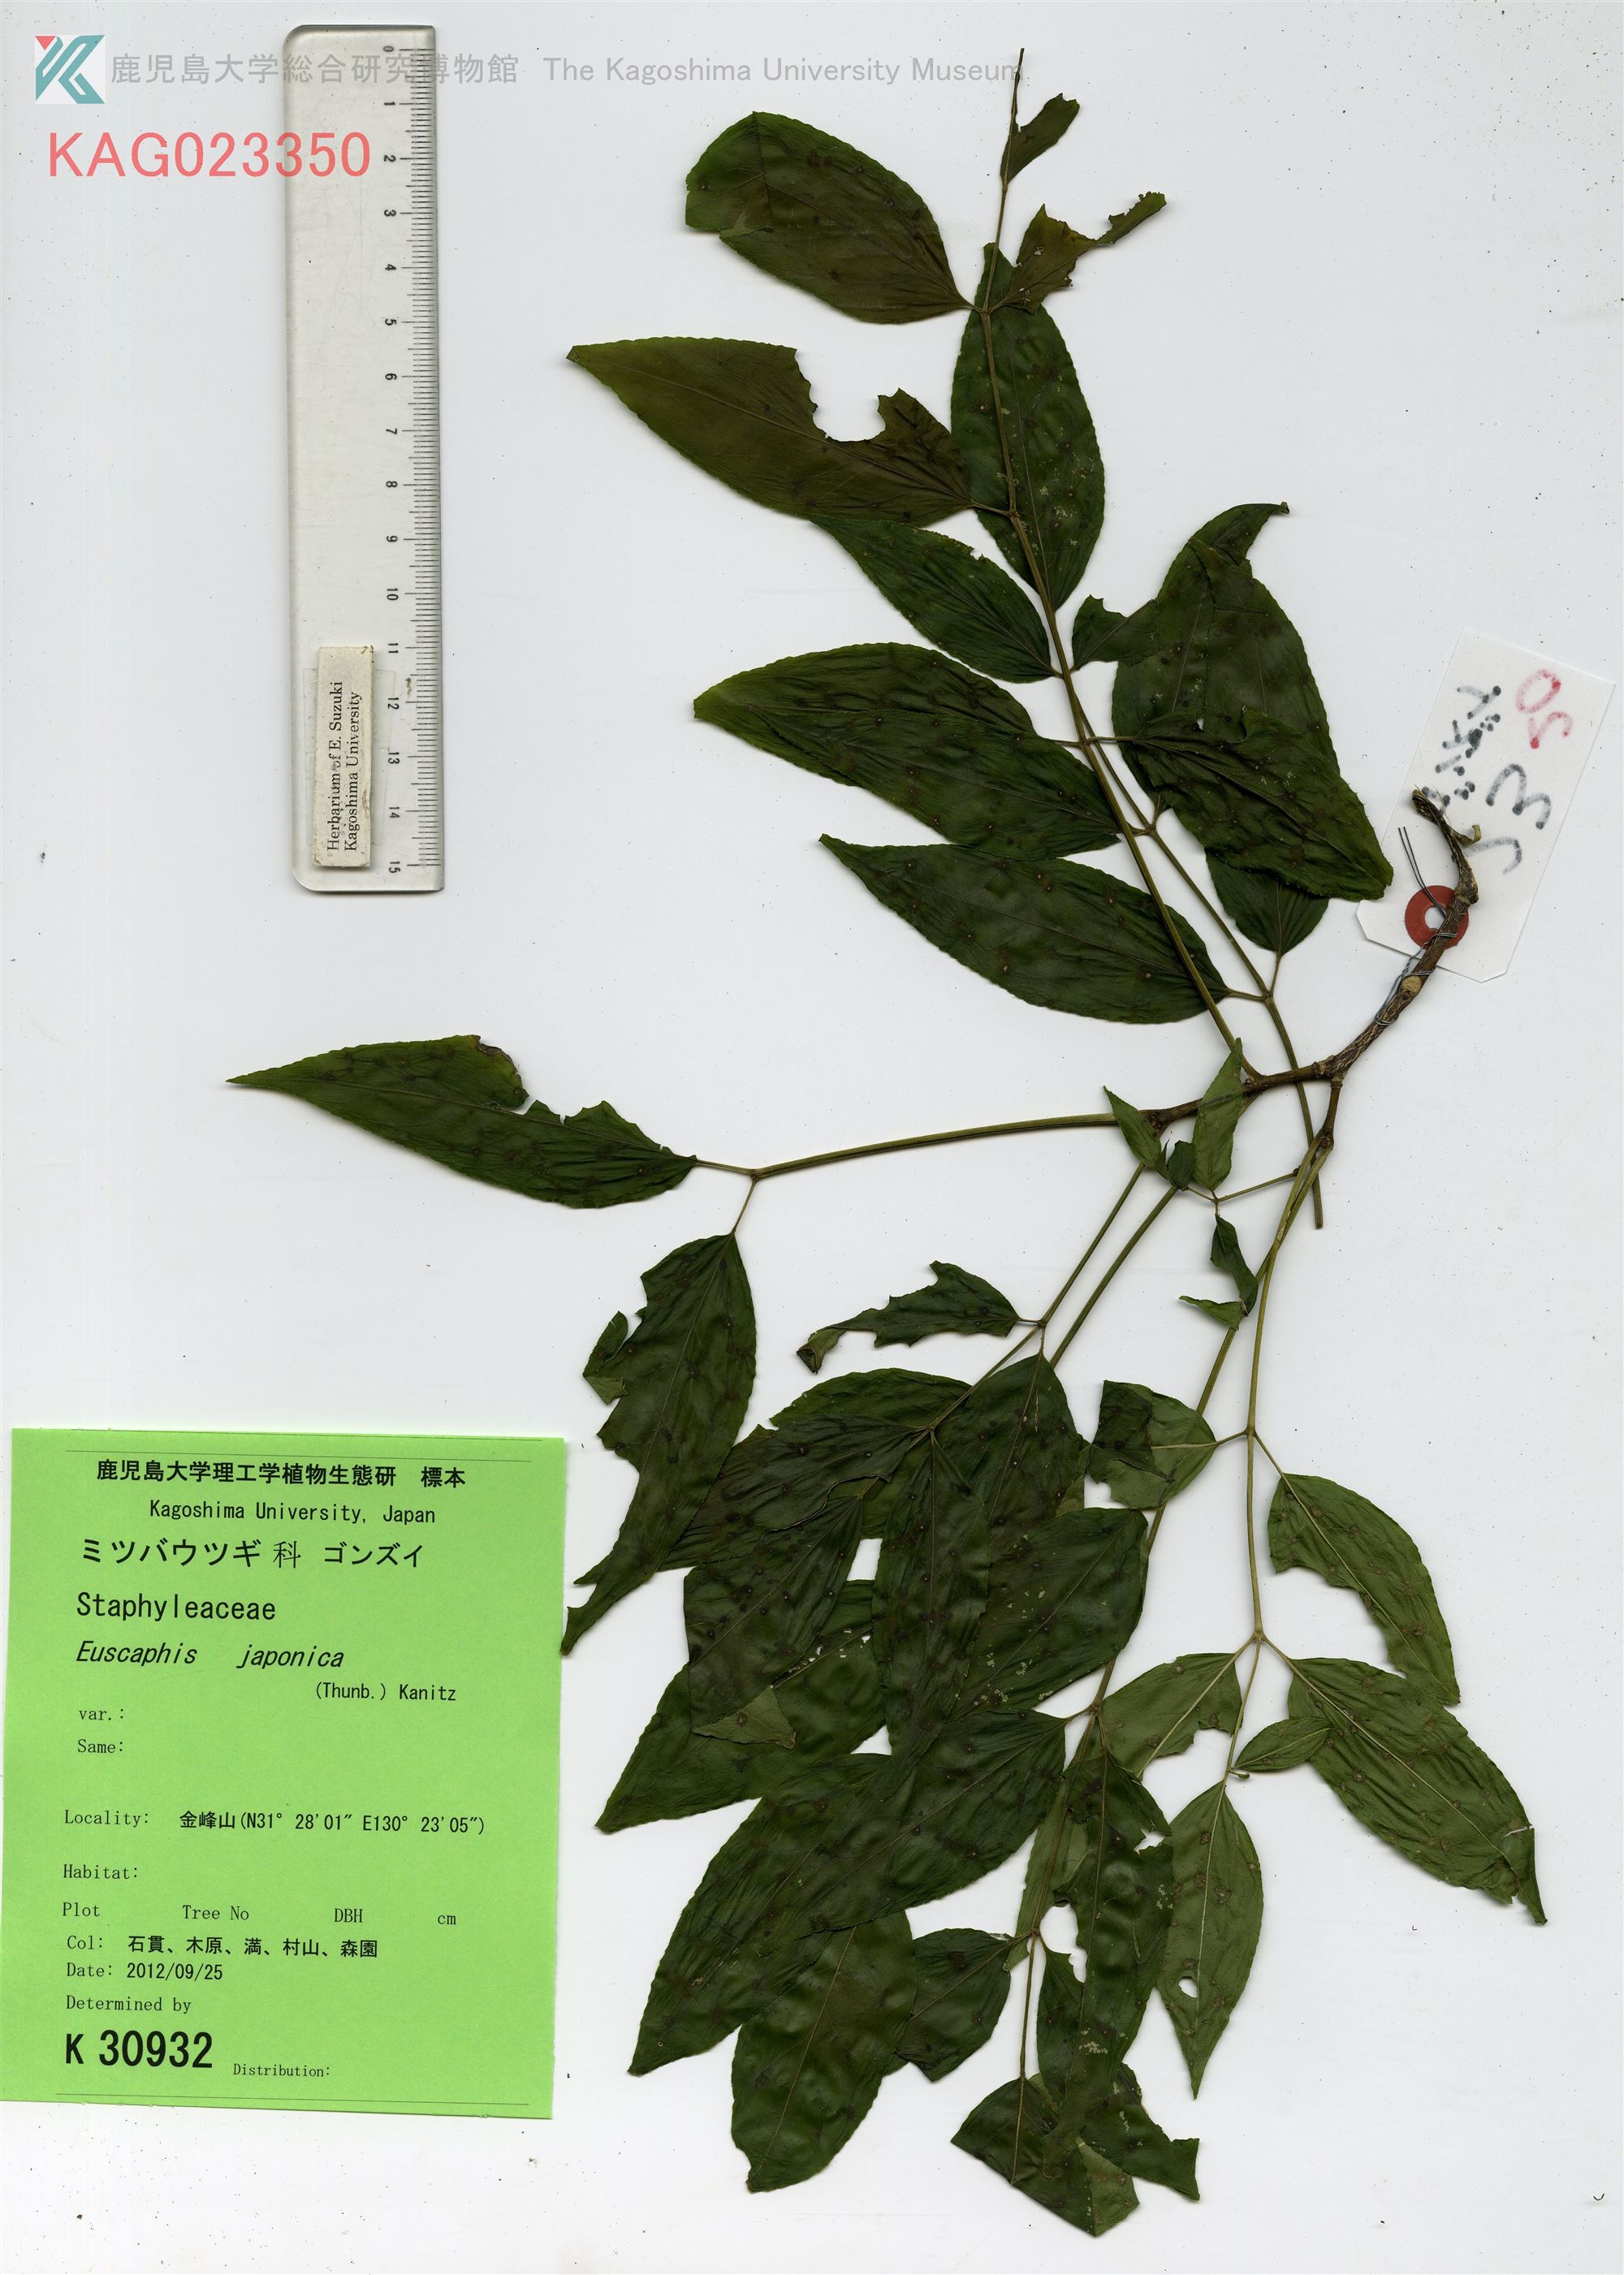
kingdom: Plantae
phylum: Tracheophyta
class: Magnoliopsida
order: Crossosomatales
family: Staphyleaceae
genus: Staphylea
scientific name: Staphylea japonica
